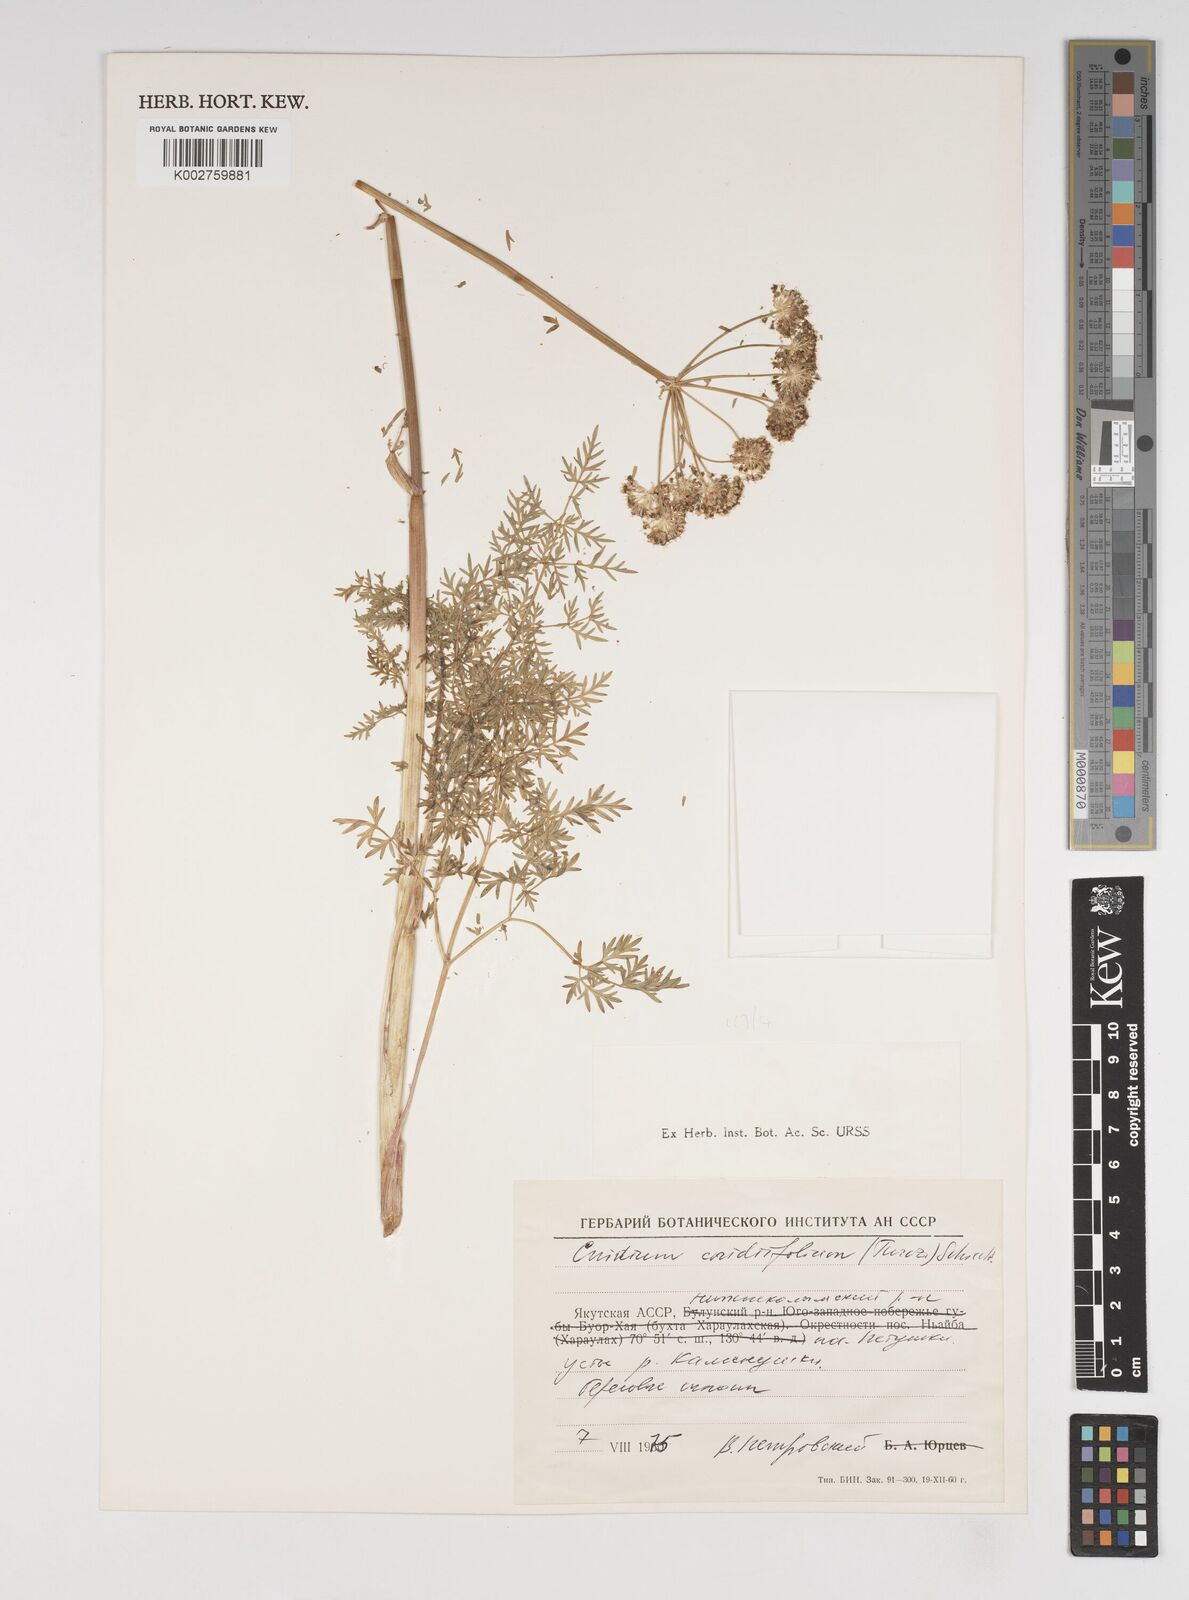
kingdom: Plantae
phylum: Tracheophyta
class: Magnoliopsida
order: Apiales
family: Apiaceae
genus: Cnidium
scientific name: Cnidium cnidiifolium
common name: Northern hemlock-parsley
